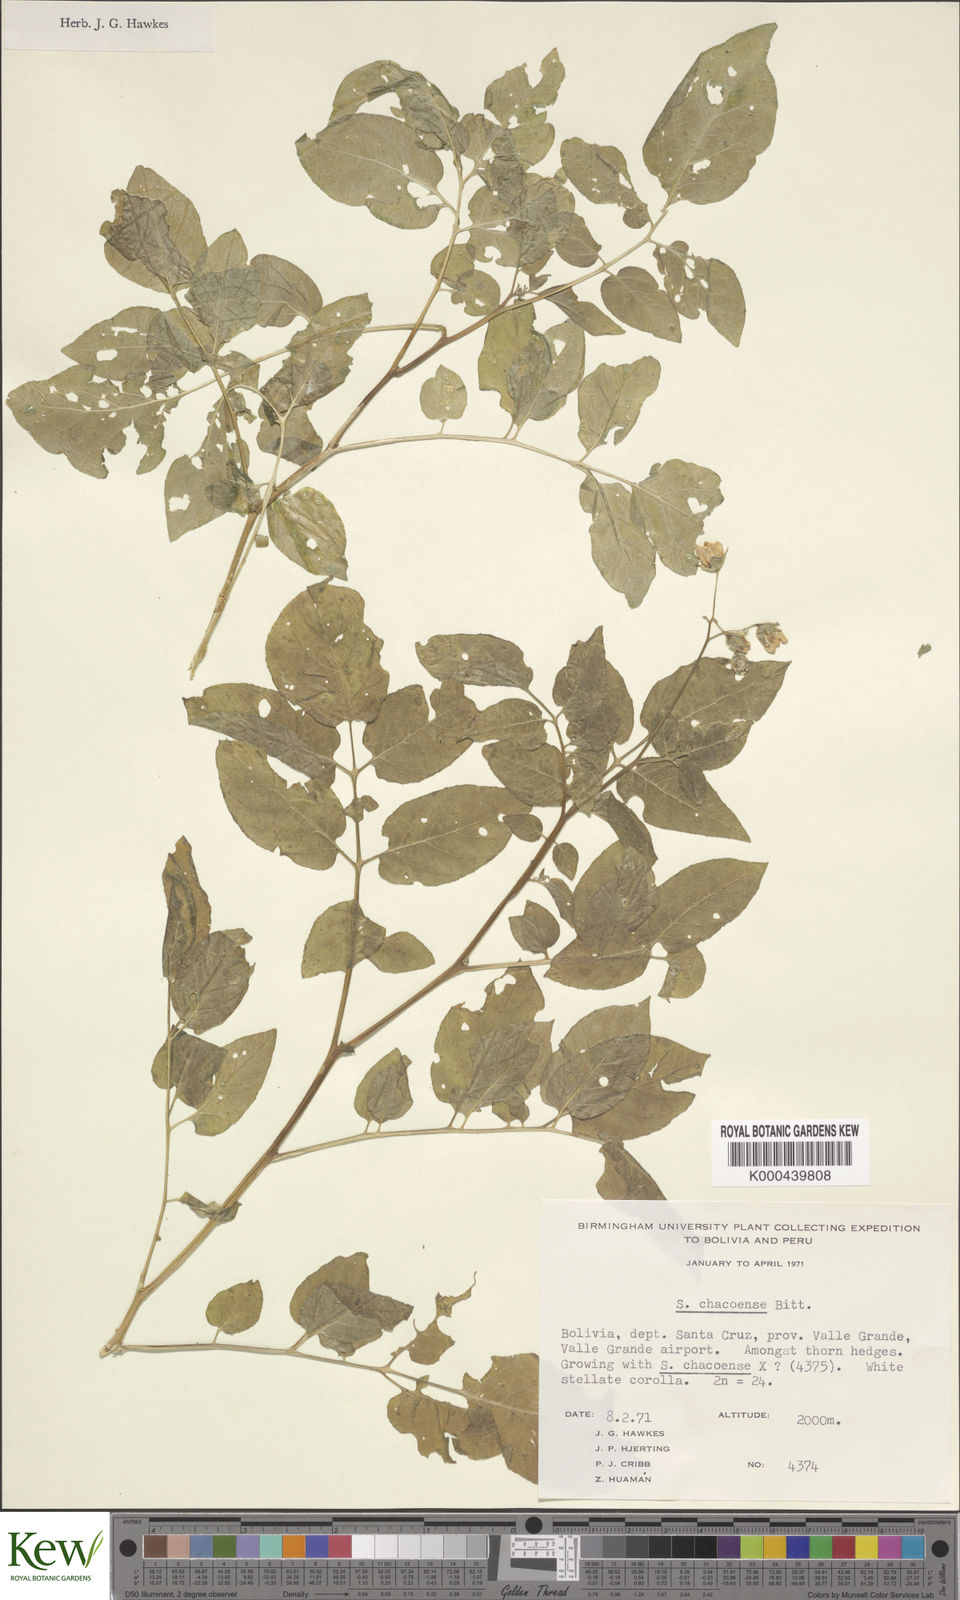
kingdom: Plantae
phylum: Tracheophyta
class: Magnoliopsida
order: Solanales
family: Solanaceae
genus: Solanum
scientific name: Solanum chacoense
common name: Chaco potato
